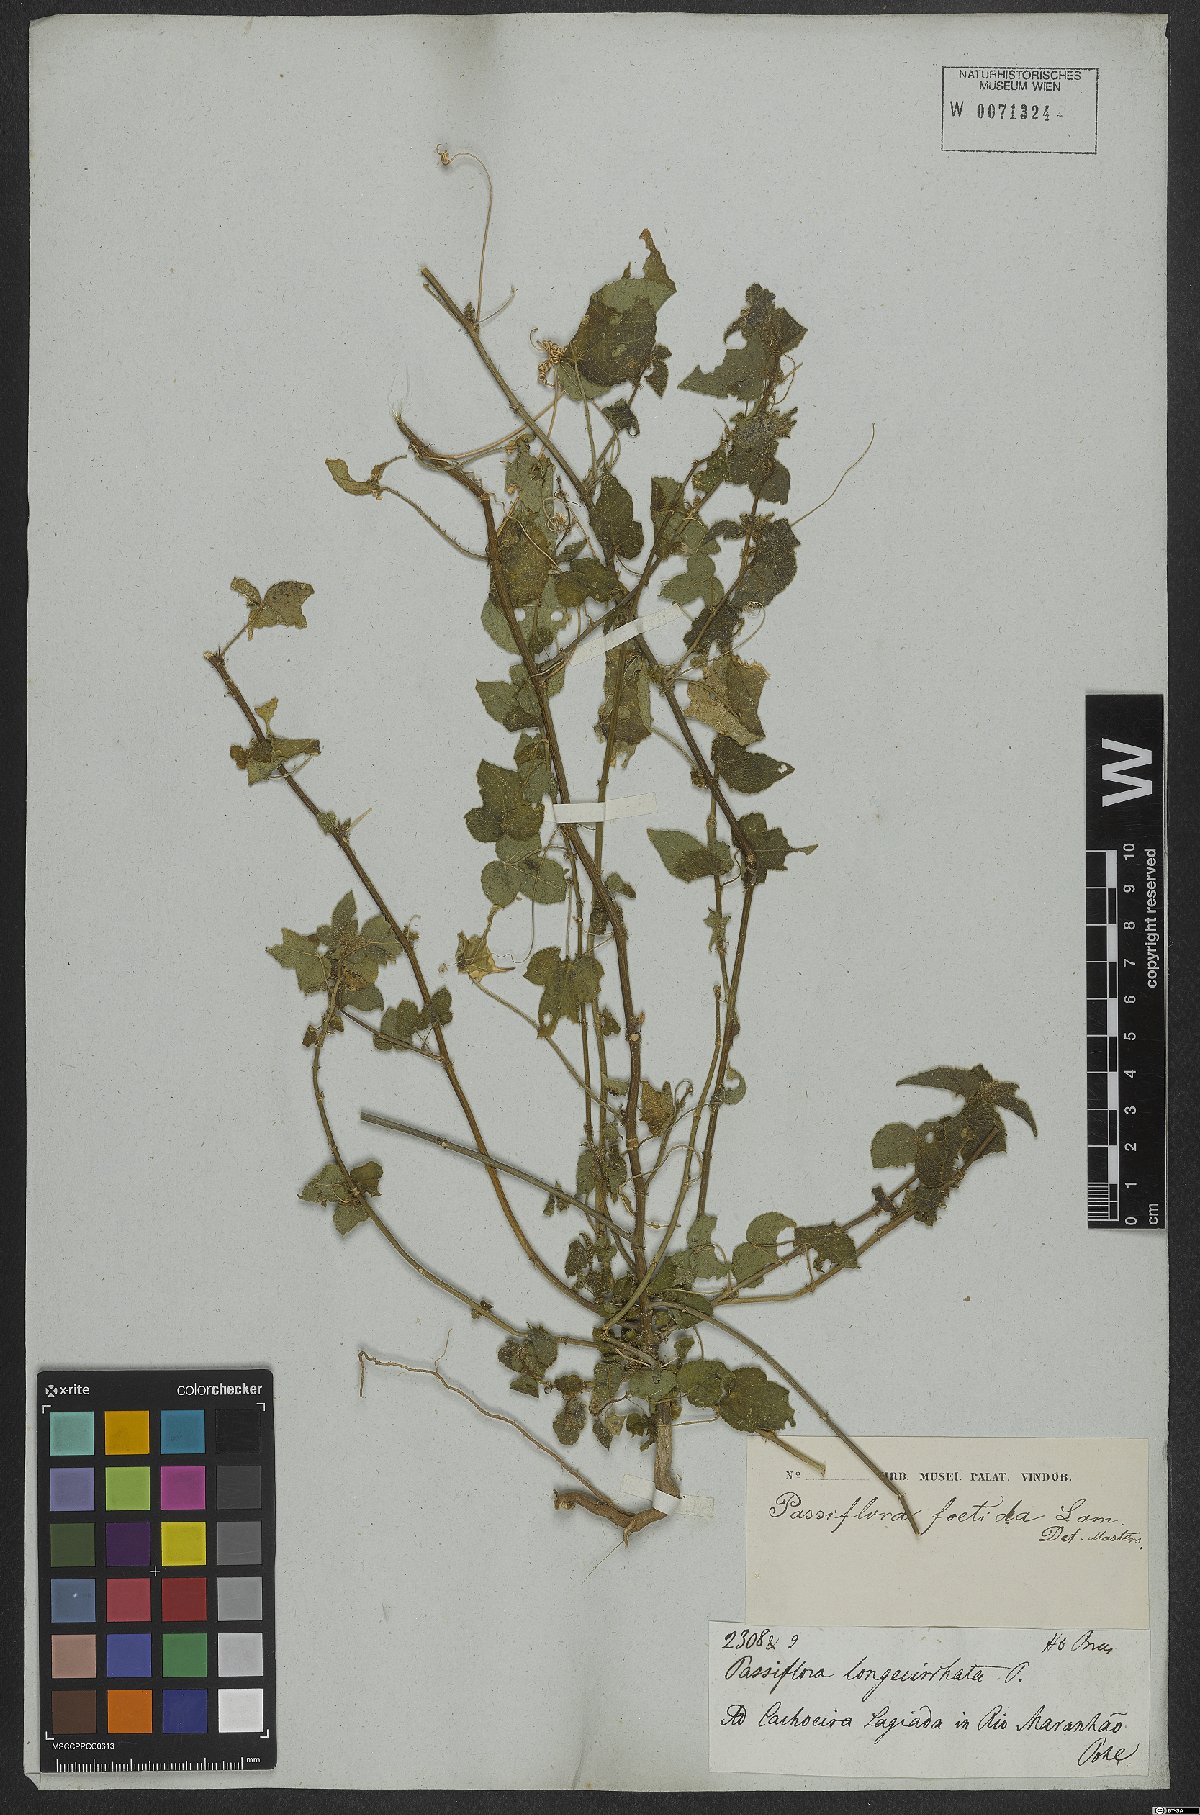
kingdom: Plantae
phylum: Tracheophyta
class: Magnoliopsida
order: Malpighiales
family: Passifloraceae
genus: Passiflora
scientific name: Passiflora foetida
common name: Fetid passionflower
